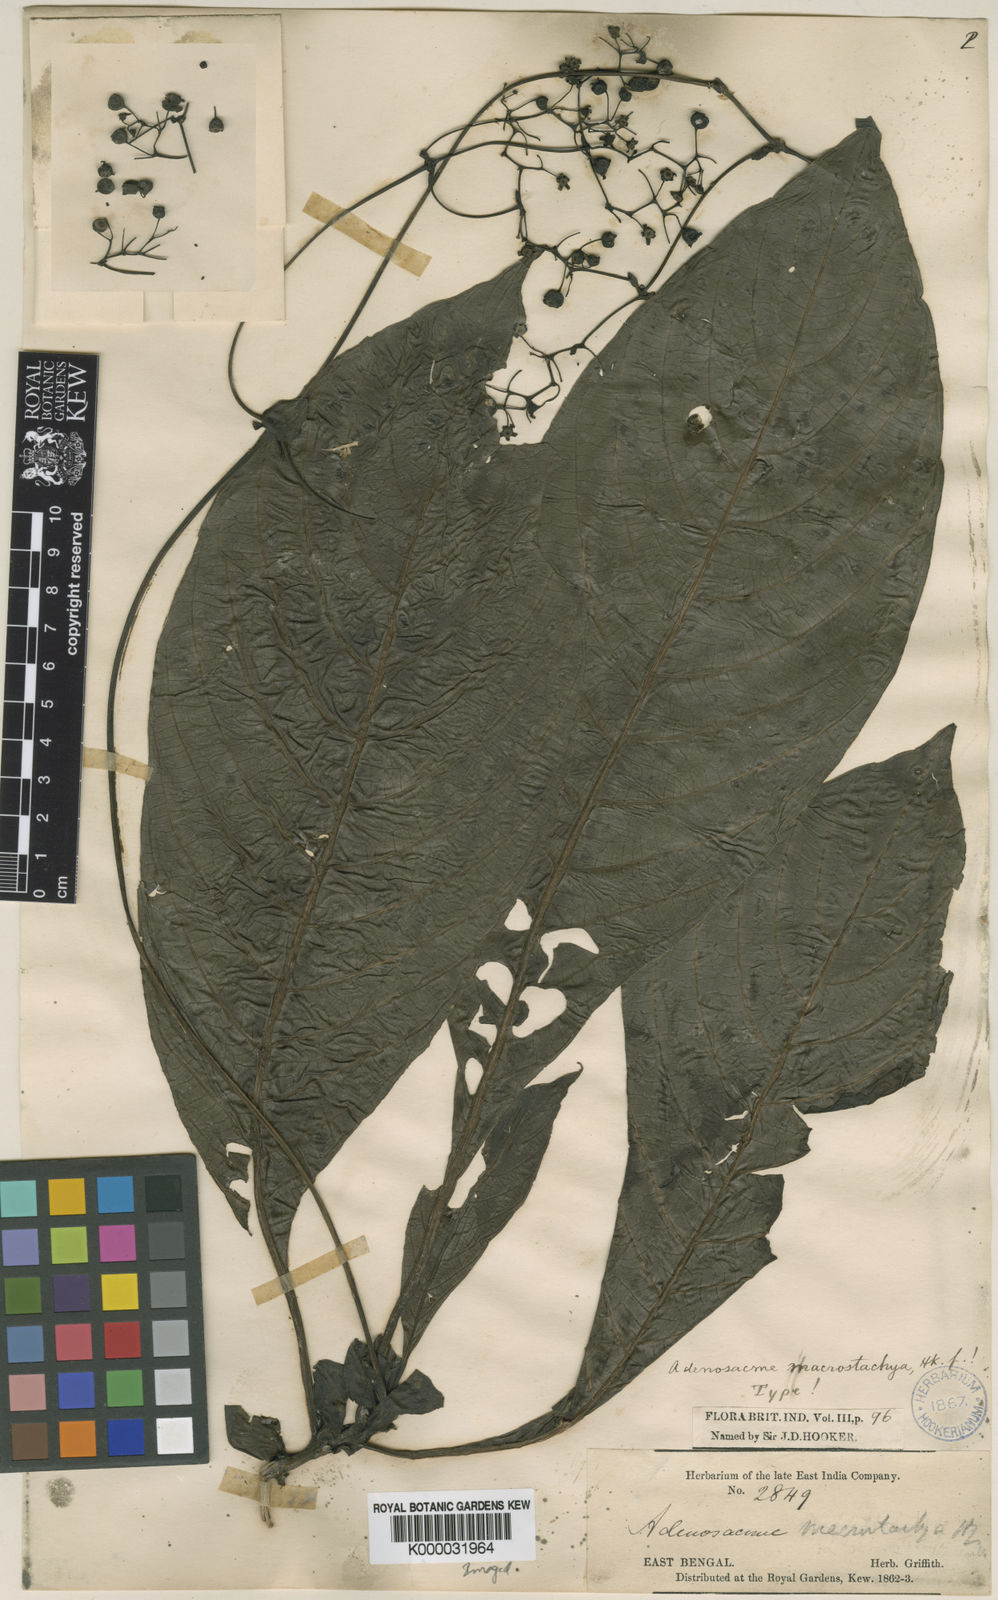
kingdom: Plantae
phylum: Tracheophyta
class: Magnoliopsida
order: Gentianales
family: Rubiaceae
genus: Mycetia
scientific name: Mycetia stipulata
